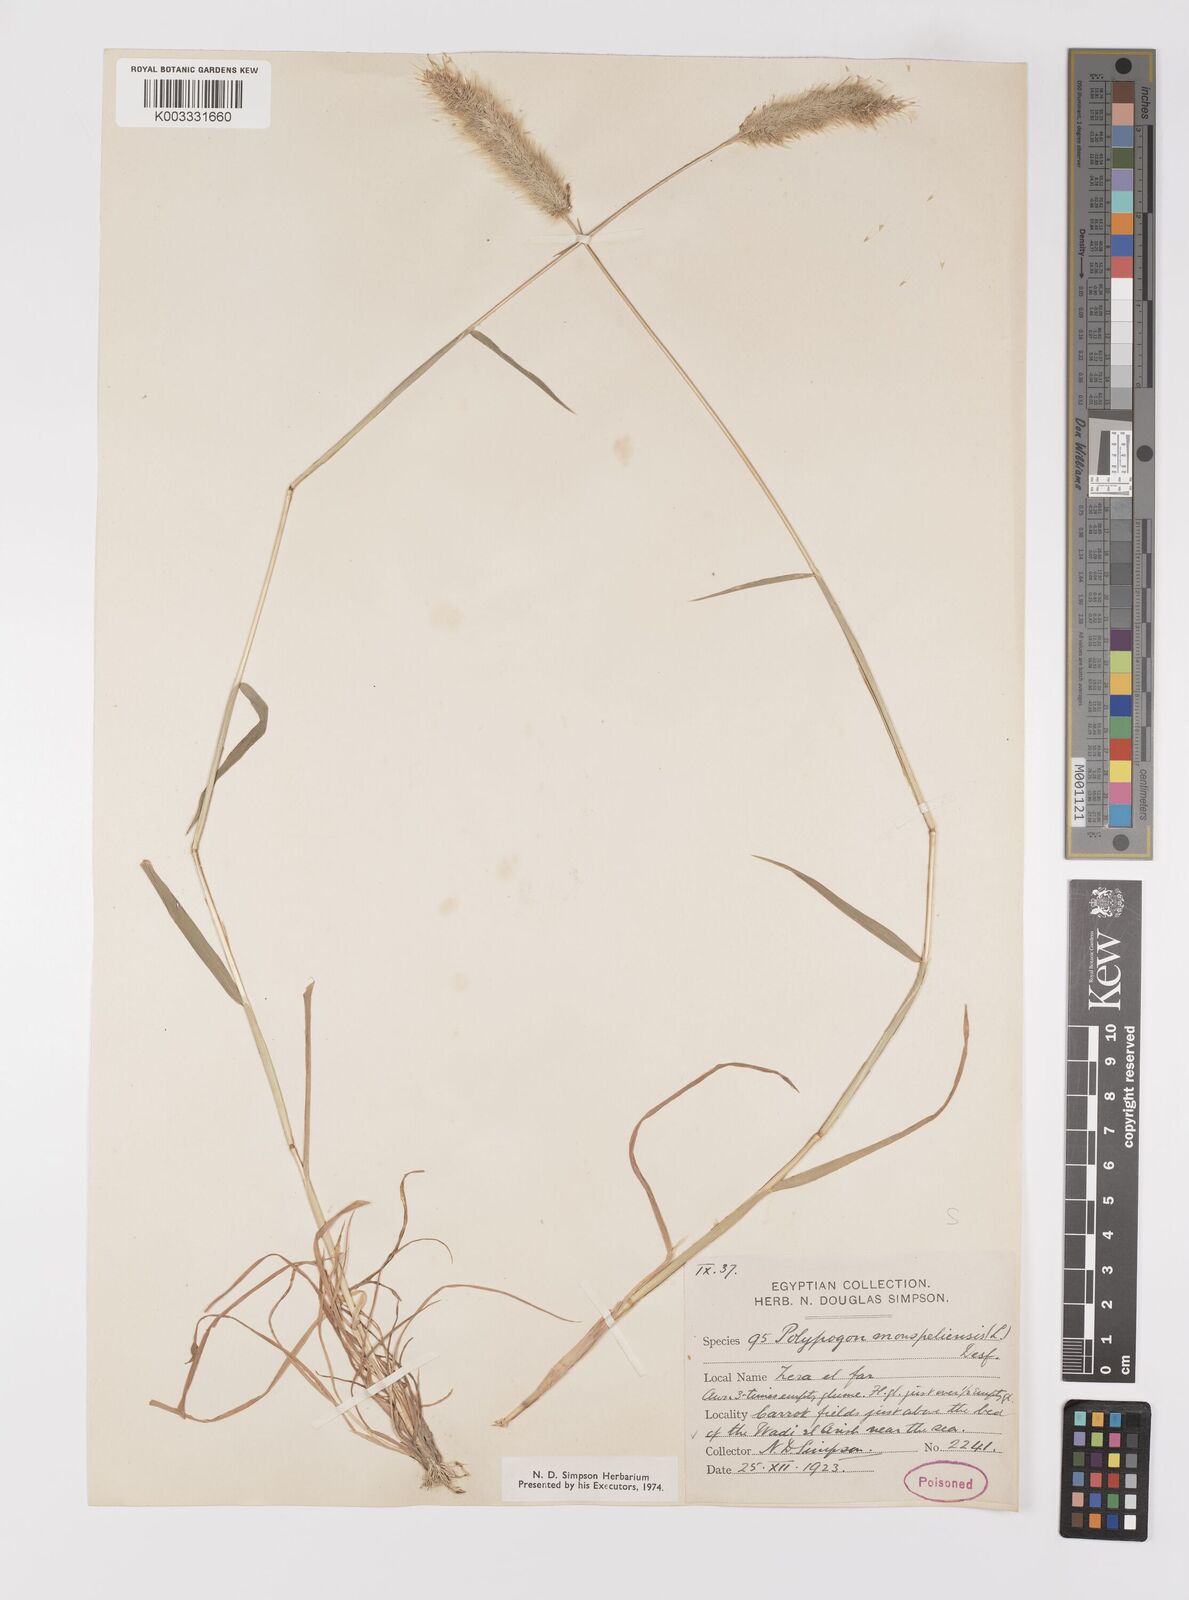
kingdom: Plantae
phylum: Tracheophyta
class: Liliopsida
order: Poales
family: Poaceae
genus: Polypogon
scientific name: Polypogon monspeliensis
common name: Annual rabbitsfoot grass
